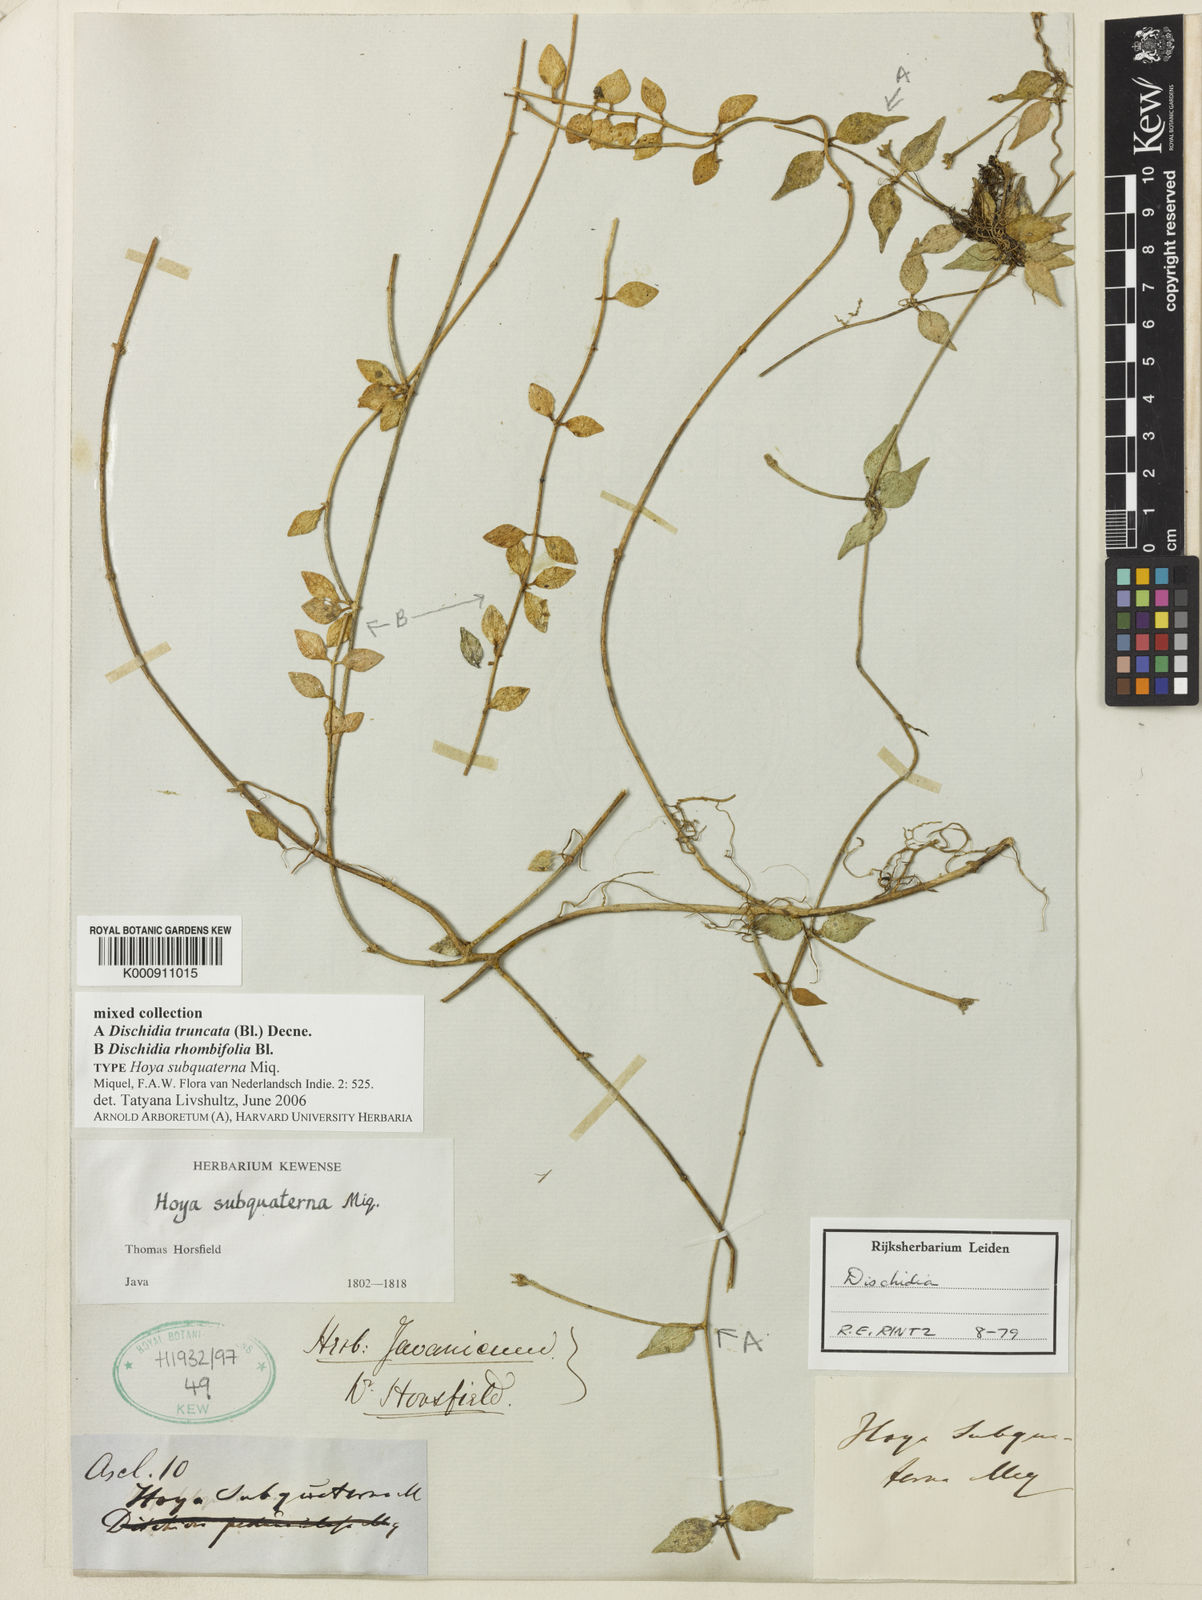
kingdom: Plantae
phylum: Tracheophyta
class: Magnoliopsida
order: Gentianales
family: Apocynaceae
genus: Dischidia
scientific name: Dischidia
